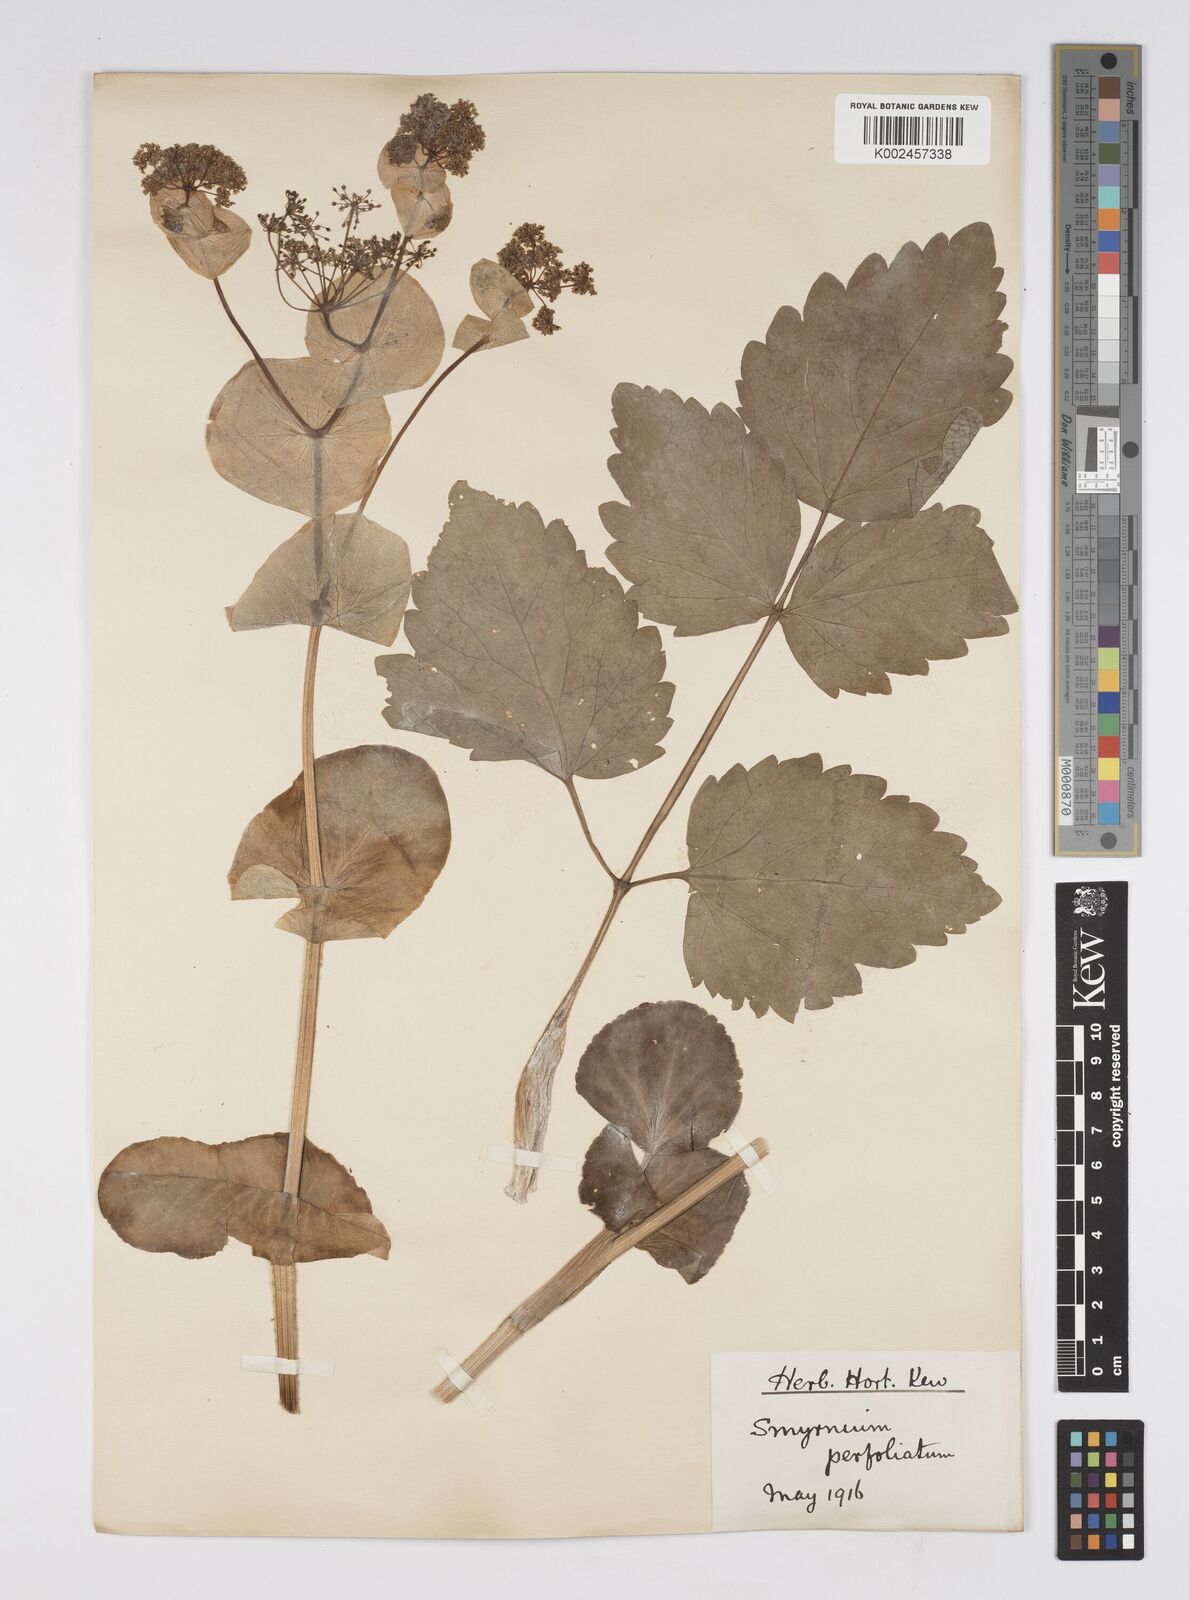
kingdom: Plantae
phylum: Tracheophyta
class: Magnoliopsida
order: Apiales
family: Apiaceae
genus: Smyrnium
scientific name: Smyrnium perfoliatum
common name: Perfoliate alexanders
